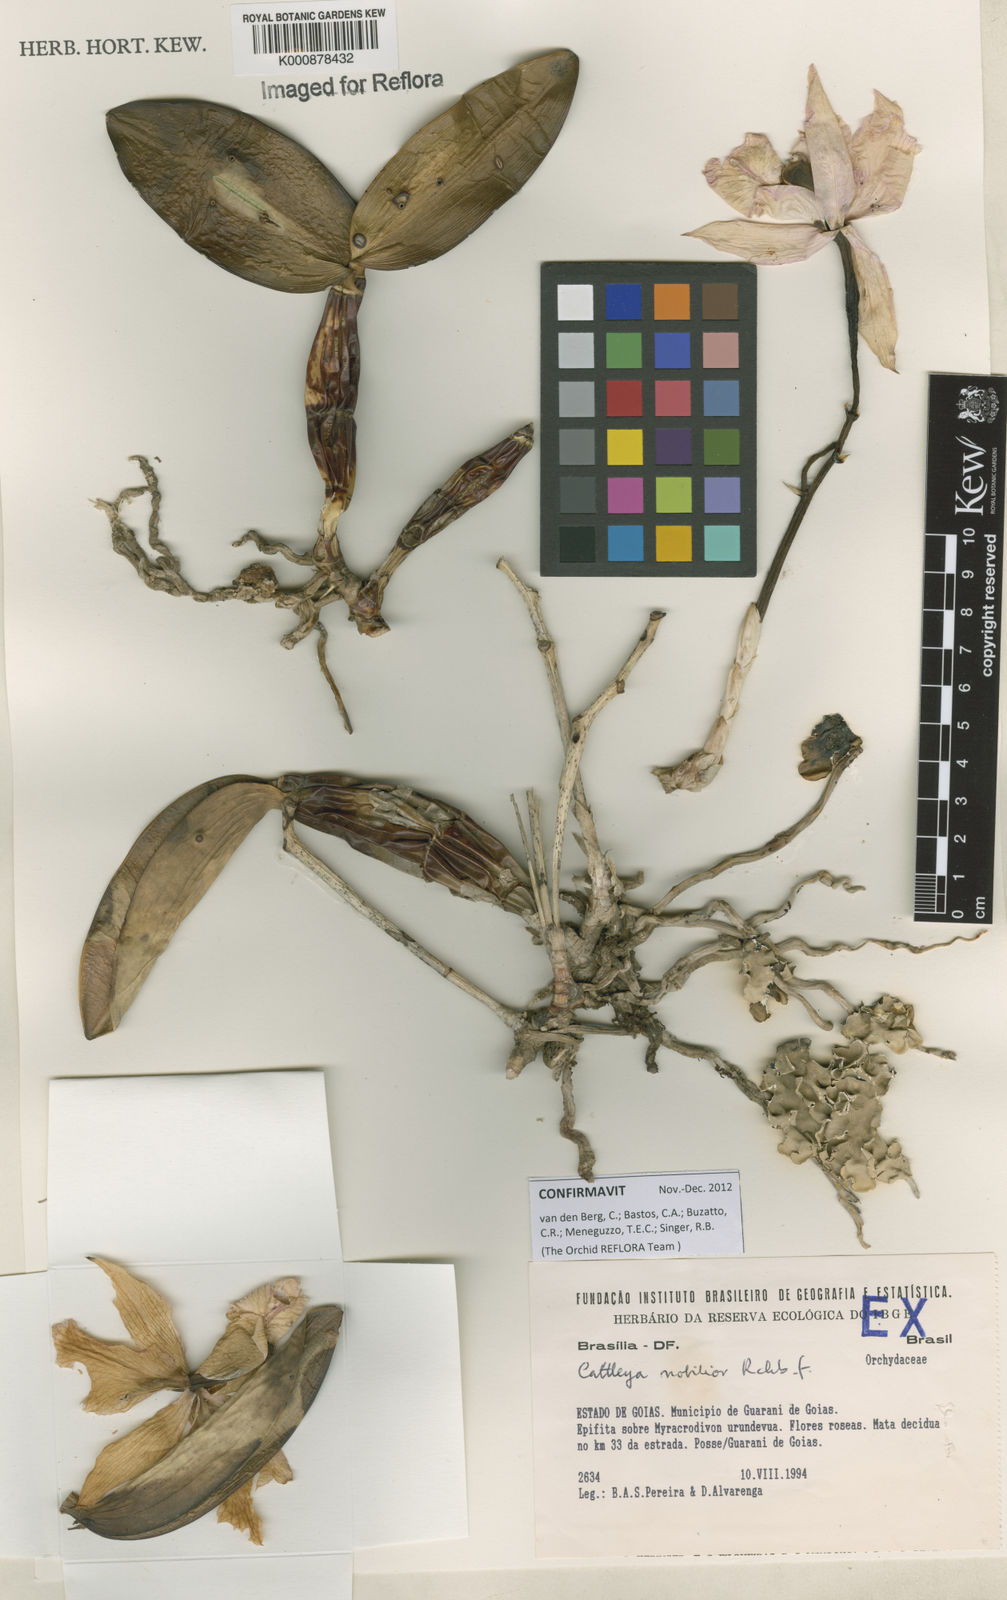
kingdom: Plantae
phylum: Tracheophyta
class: Liliopsida
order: Asparagales
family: Orchidaceae
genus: Cattleya
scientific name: Cattleya nobilior
